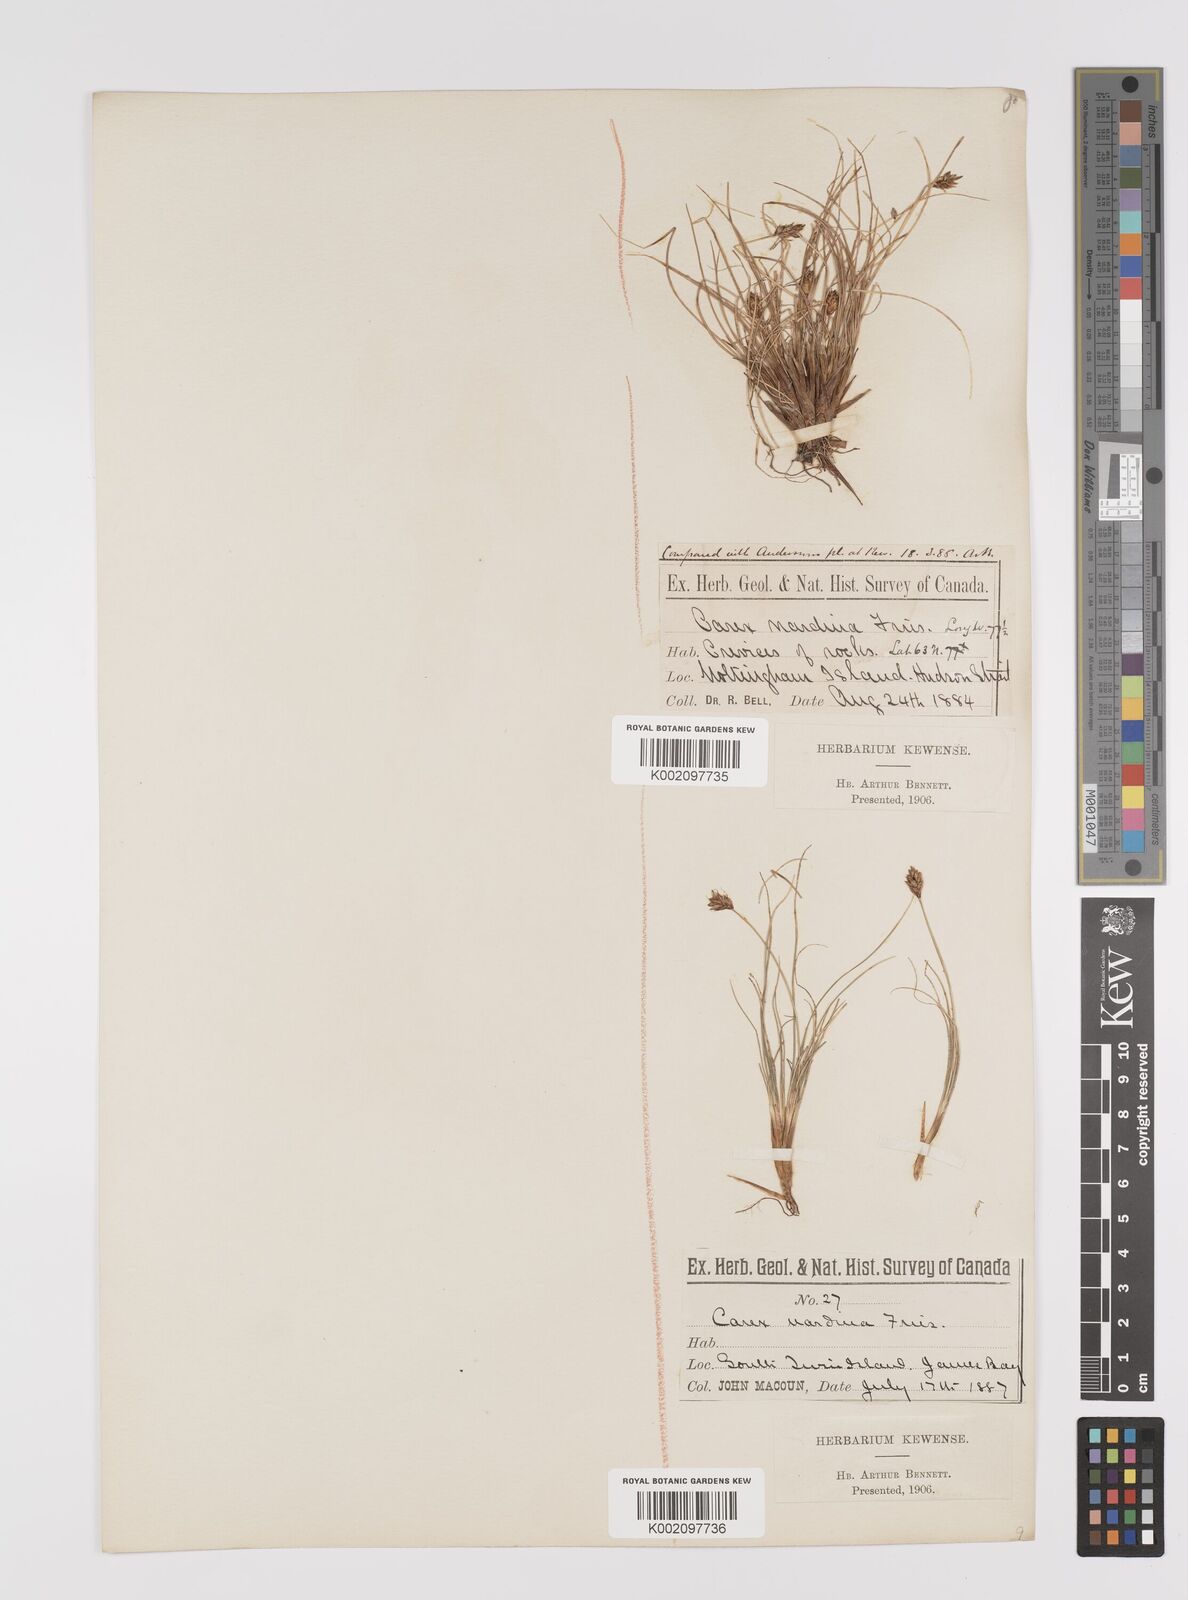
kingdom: Plantae
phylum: Tracheophyta
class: Liliopsida
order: Poales
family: Cyperaceae
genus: Carex
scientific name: Carex nardina
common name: Nard sedge
